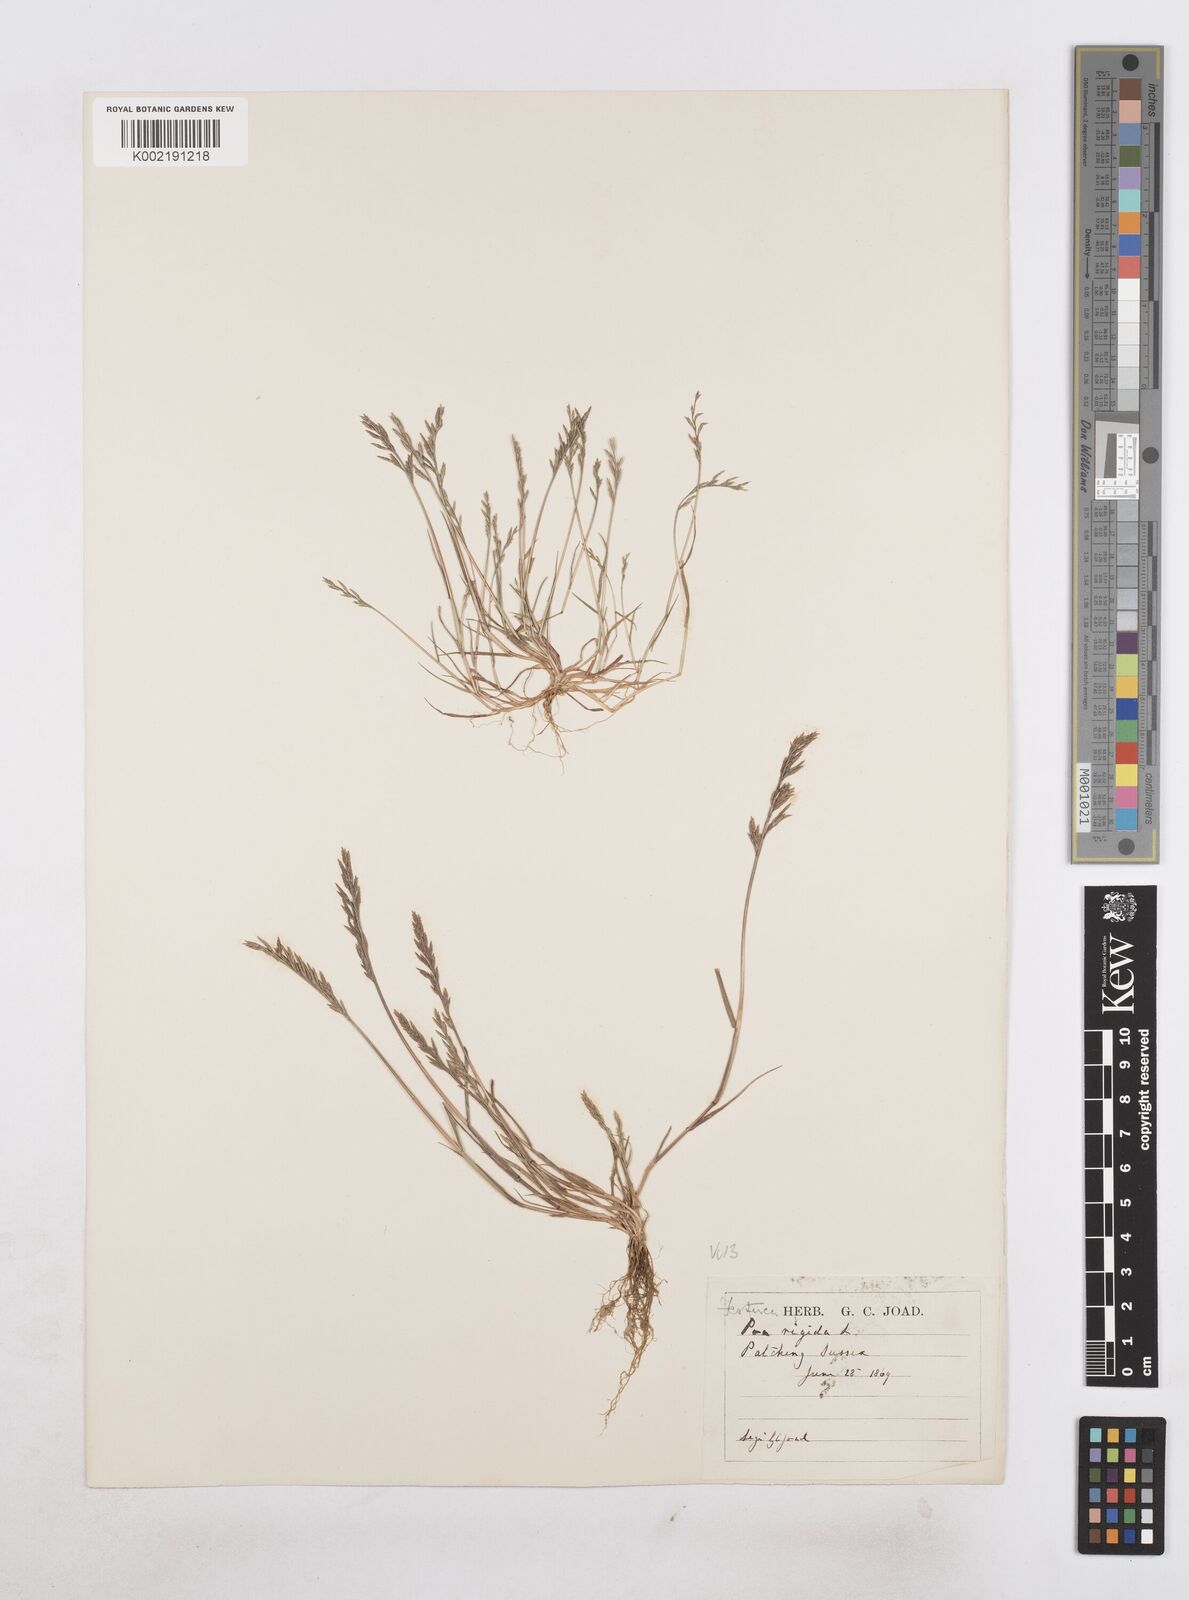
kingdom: Plantae
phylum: Tracheophyta
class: Liliopsida
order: Poales
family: Poaceae
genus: Catapodium
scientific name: Catapodium rigidum
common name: Fern-grass
